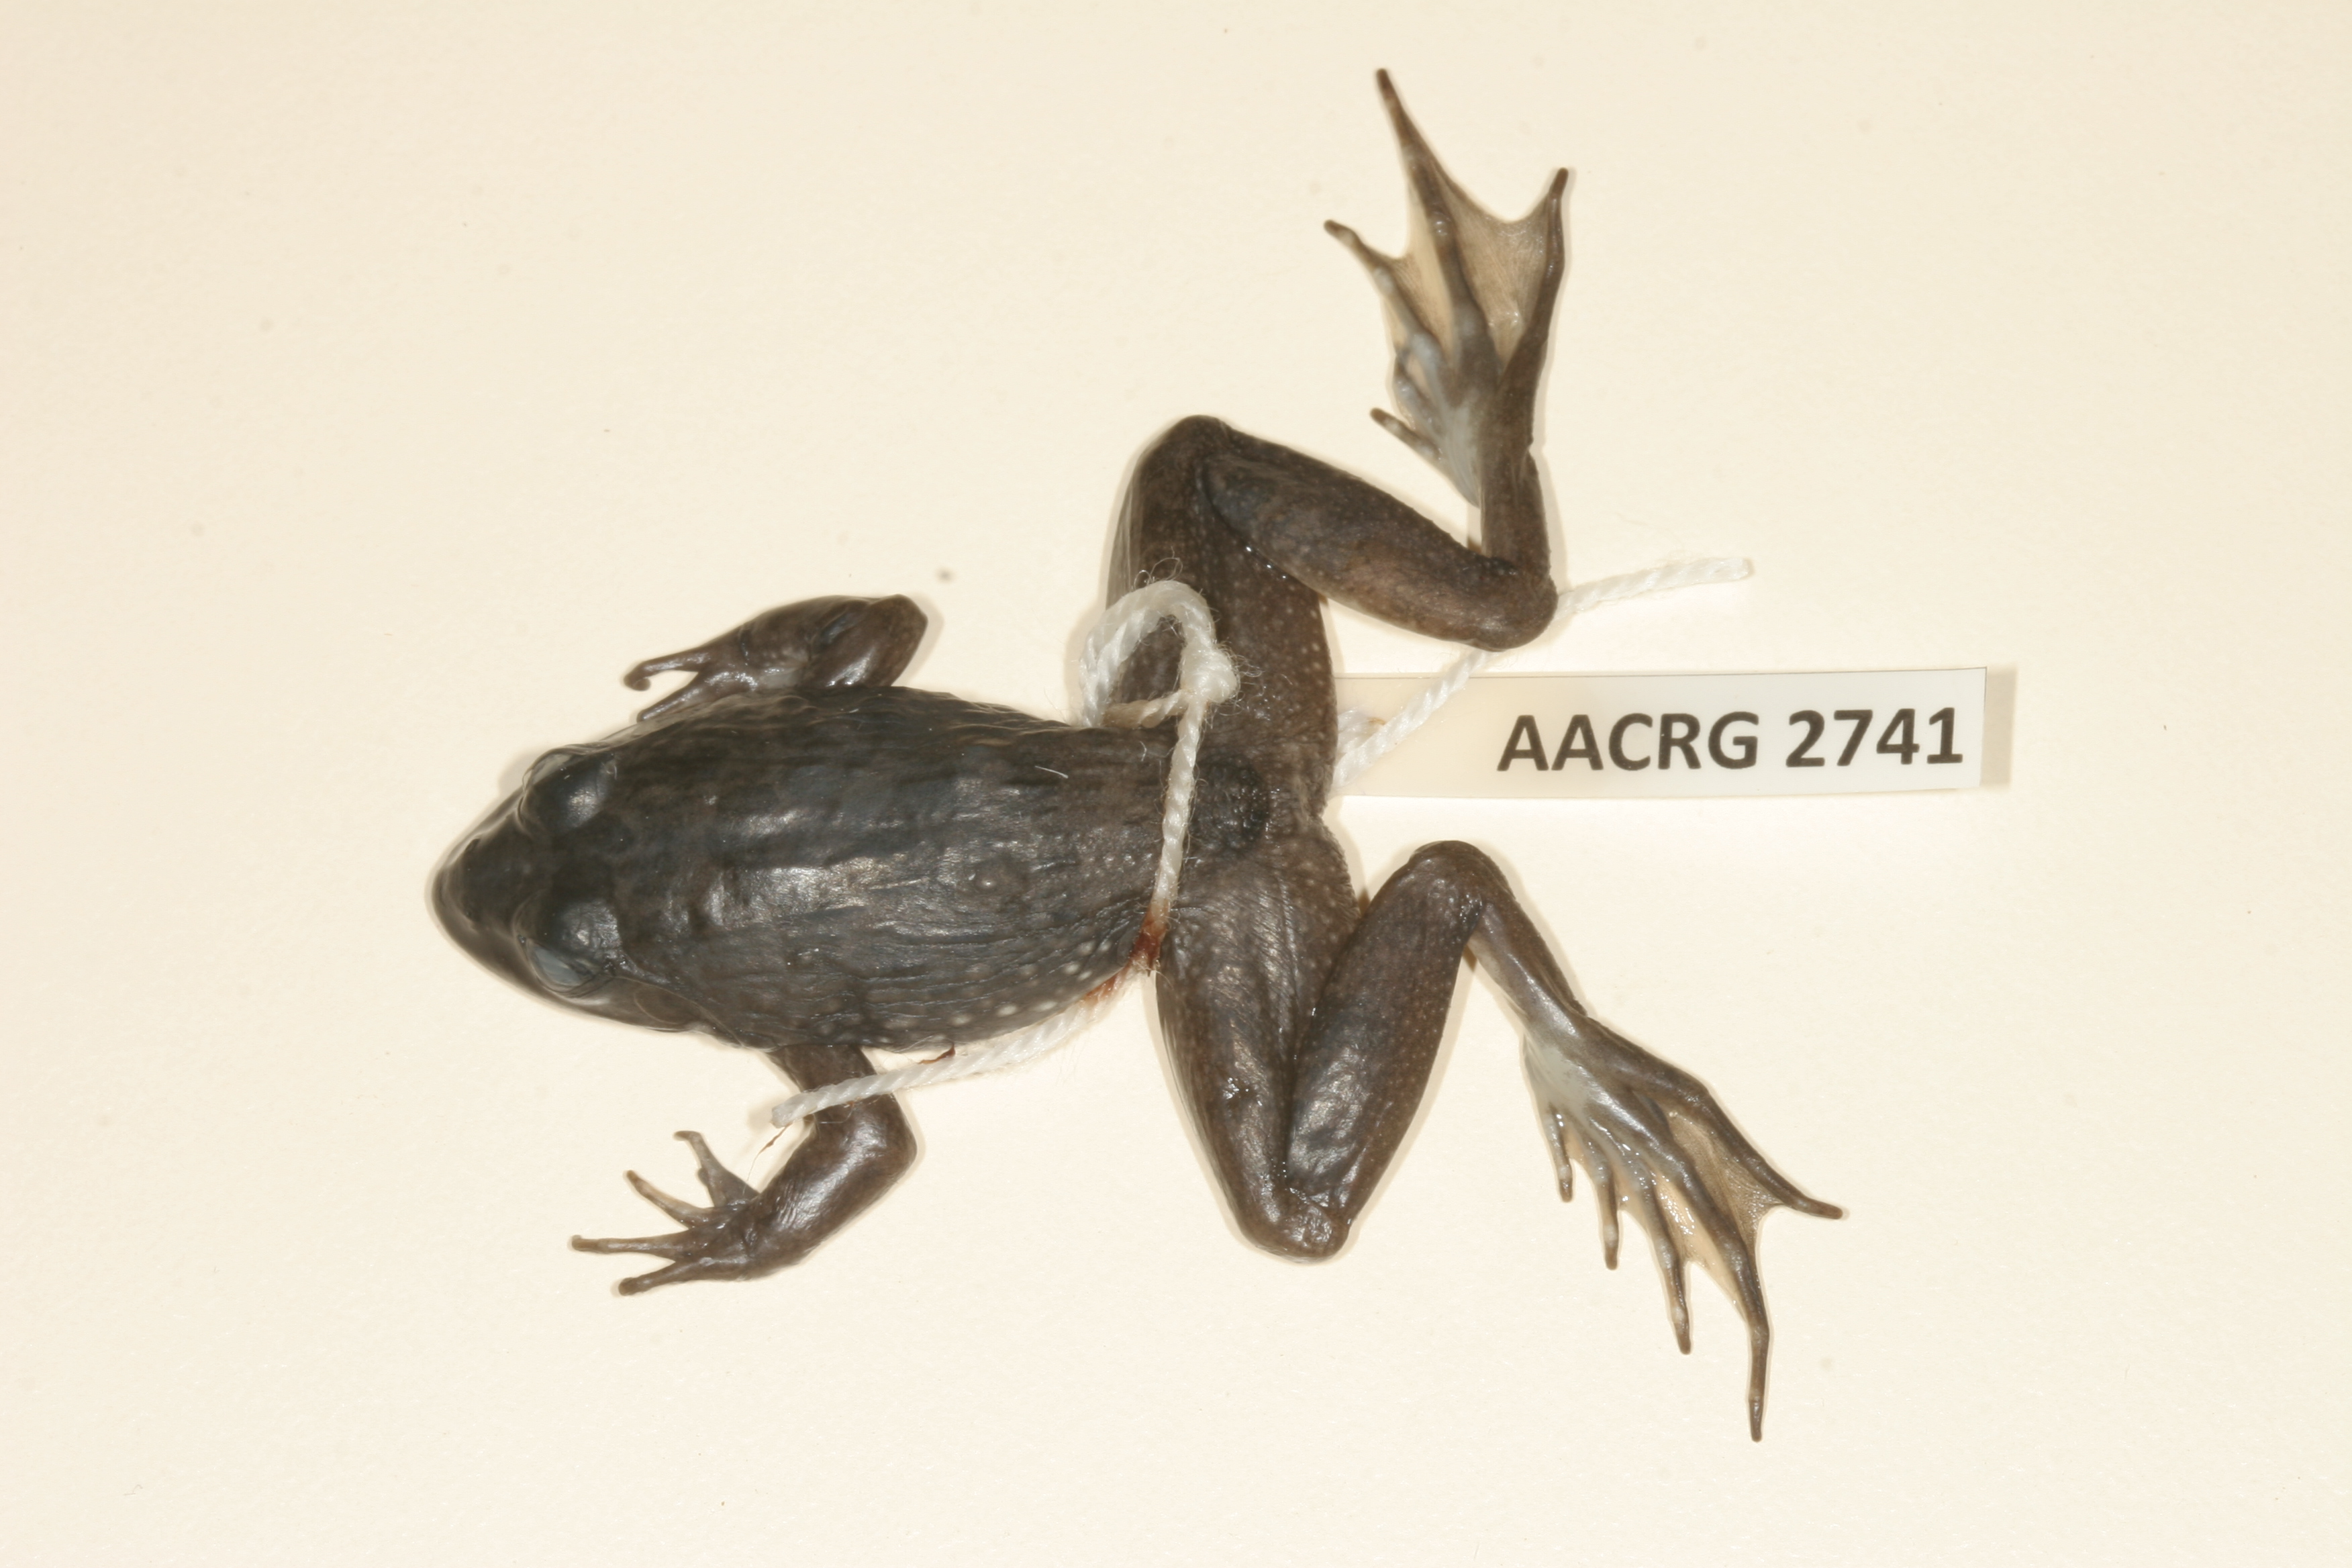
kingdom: Animalia
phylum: Chordata
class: Amphibia
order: Anura
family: Pyxicephalidae
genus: Amietia
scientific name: Amietia fuscigula
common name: Cape rana
